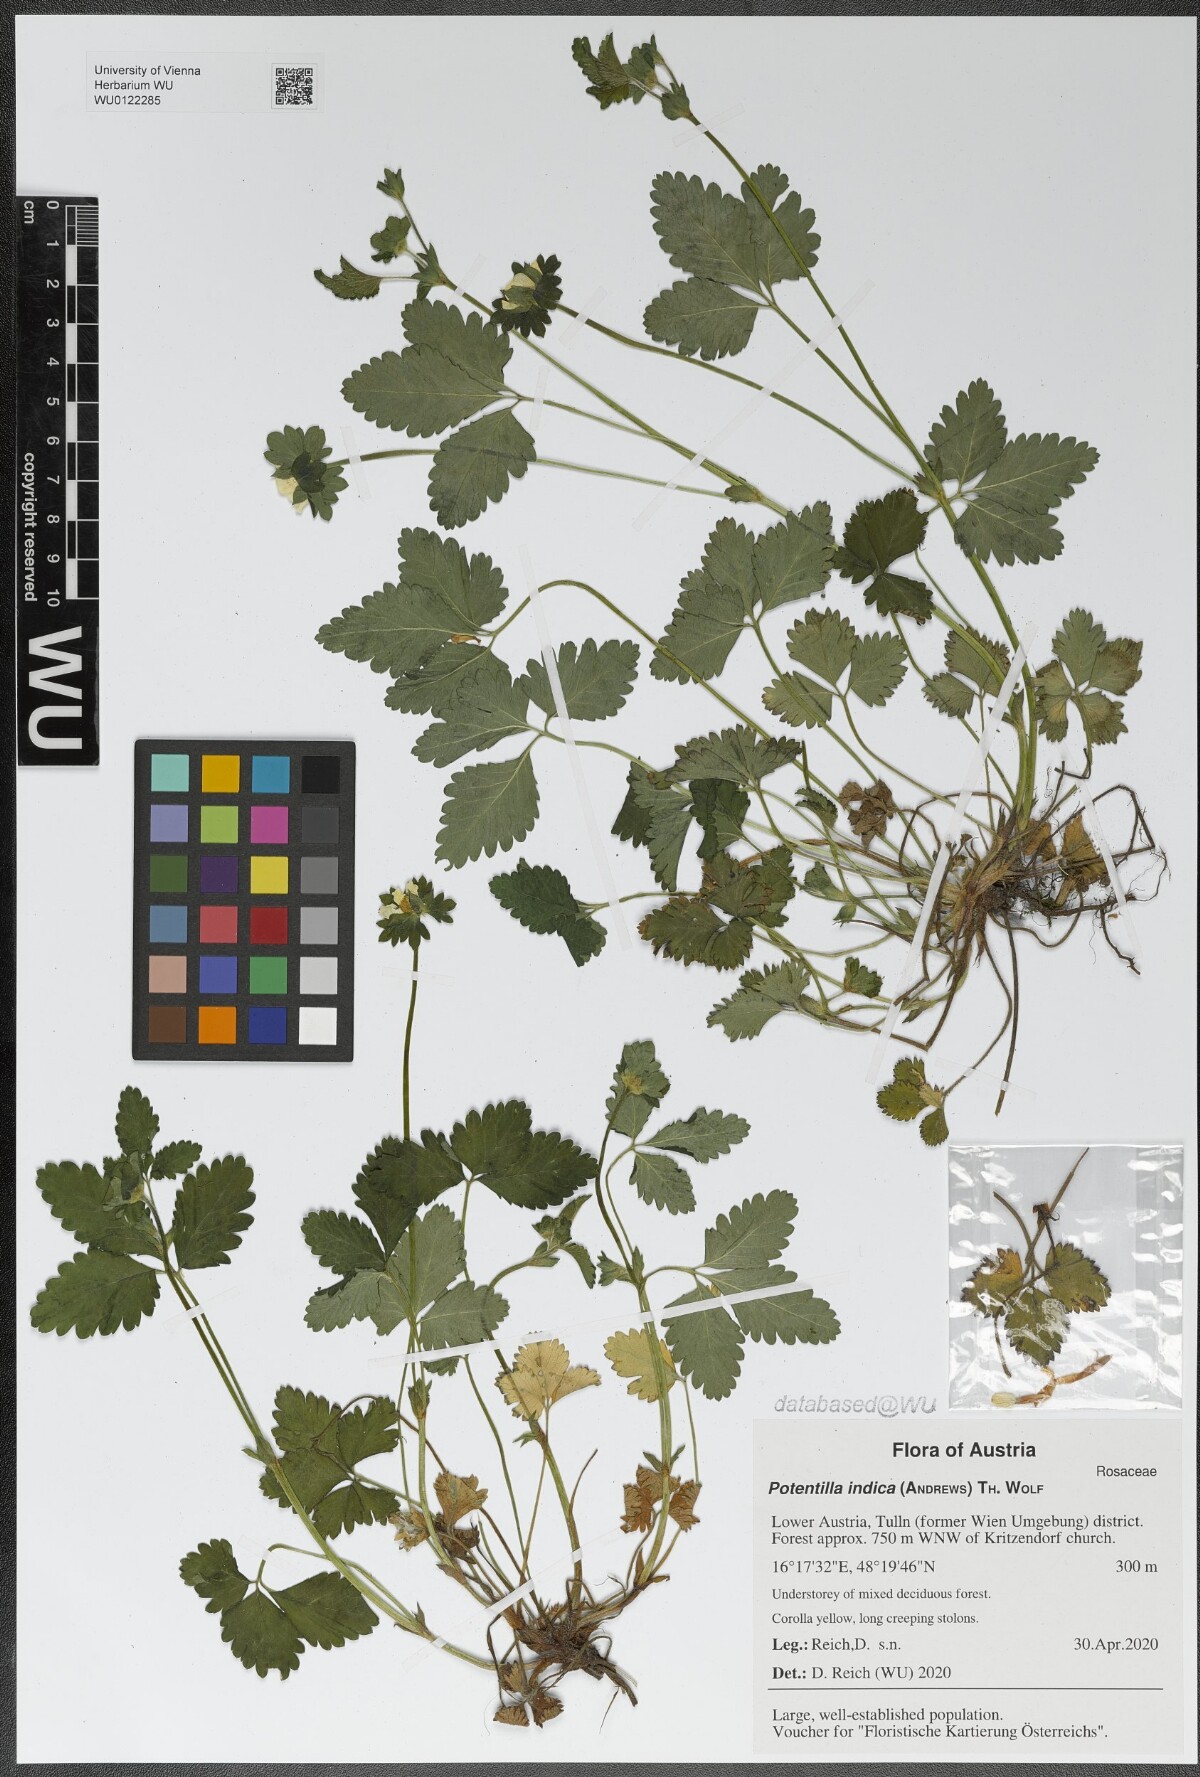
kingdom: Plantae
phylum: Tracheophyta
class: Magnoliopsida
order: Rosales
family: Rosaceae
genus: Potentilla
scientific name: Potentilla indica
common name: Yellow-flowered strawberry
